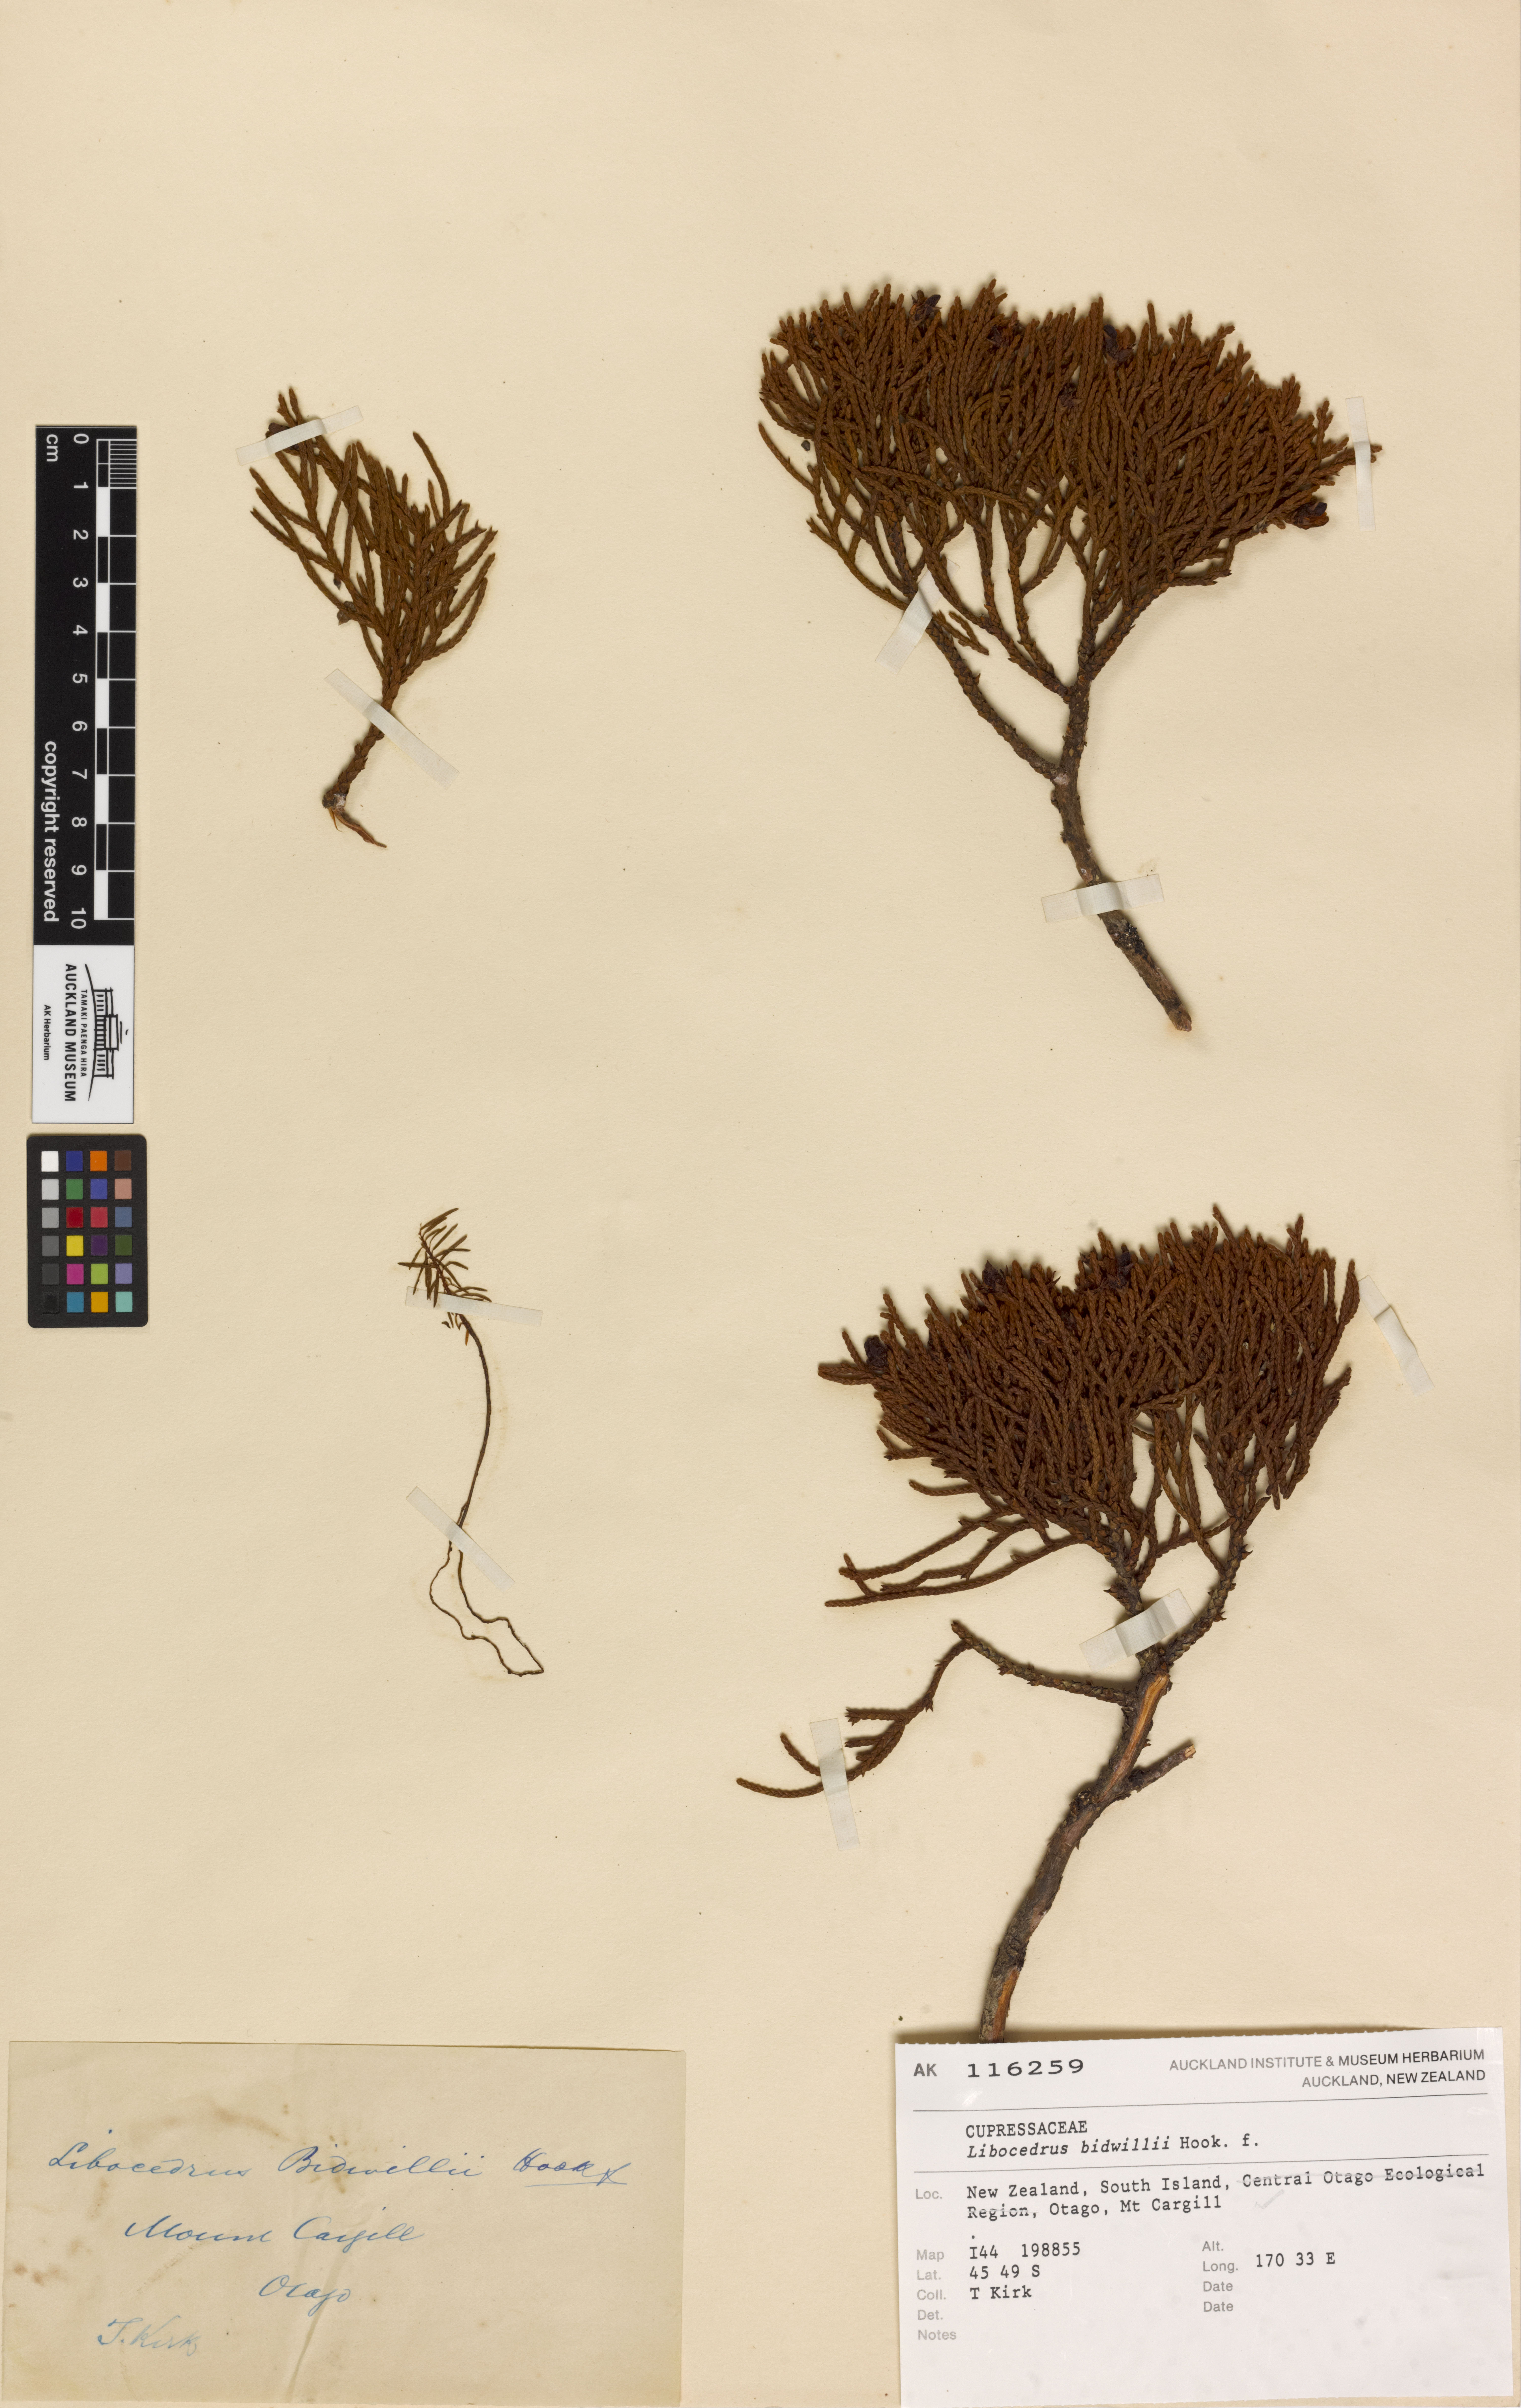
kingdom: Plantae
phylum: Tracheophyta
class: Pinopsida
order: Pinales
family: Cupressaceae
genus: Libocedrus
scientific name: Libocedrus bidwillii
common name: Cedar
